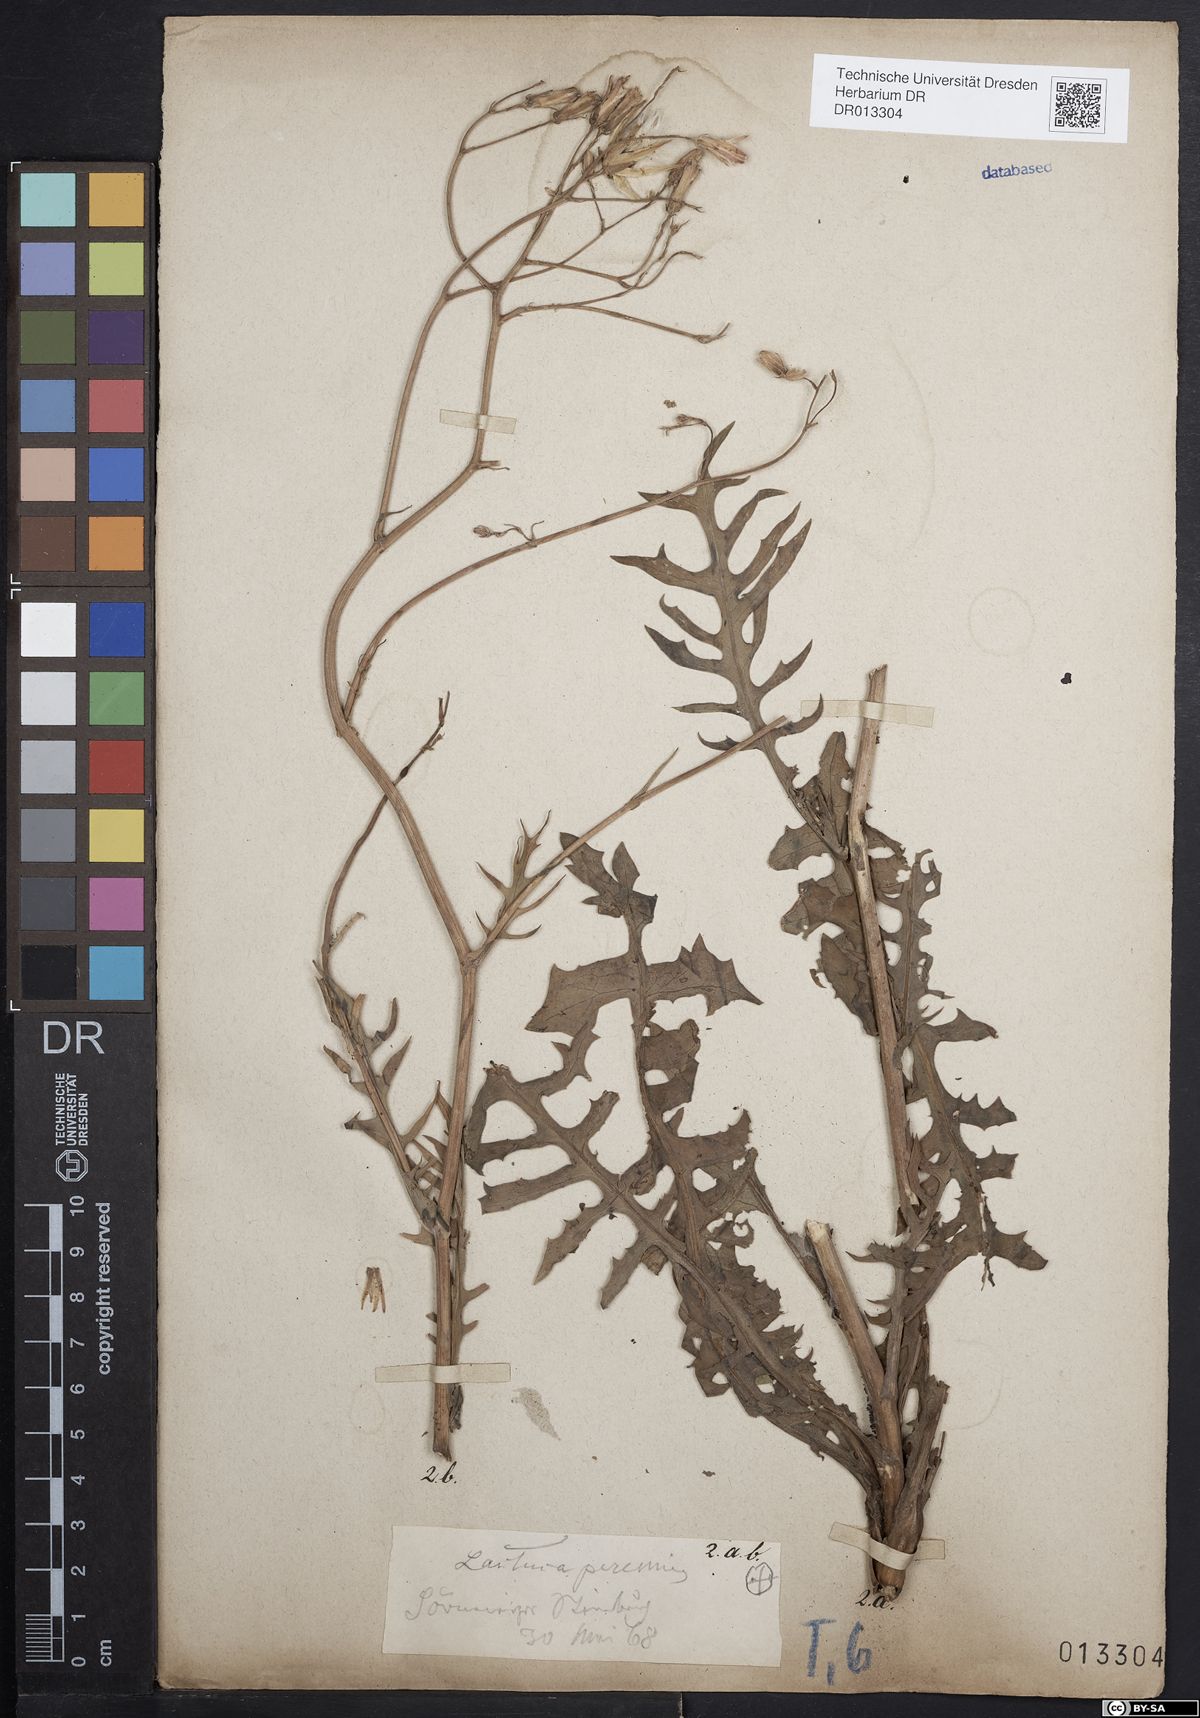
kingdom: Plantae
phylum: Tracheophyta
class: Magnoliopsida
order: Asterales
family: Asteraceae
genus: Lactuca
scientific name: Lactuca perennis
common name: Mountain lettuce
